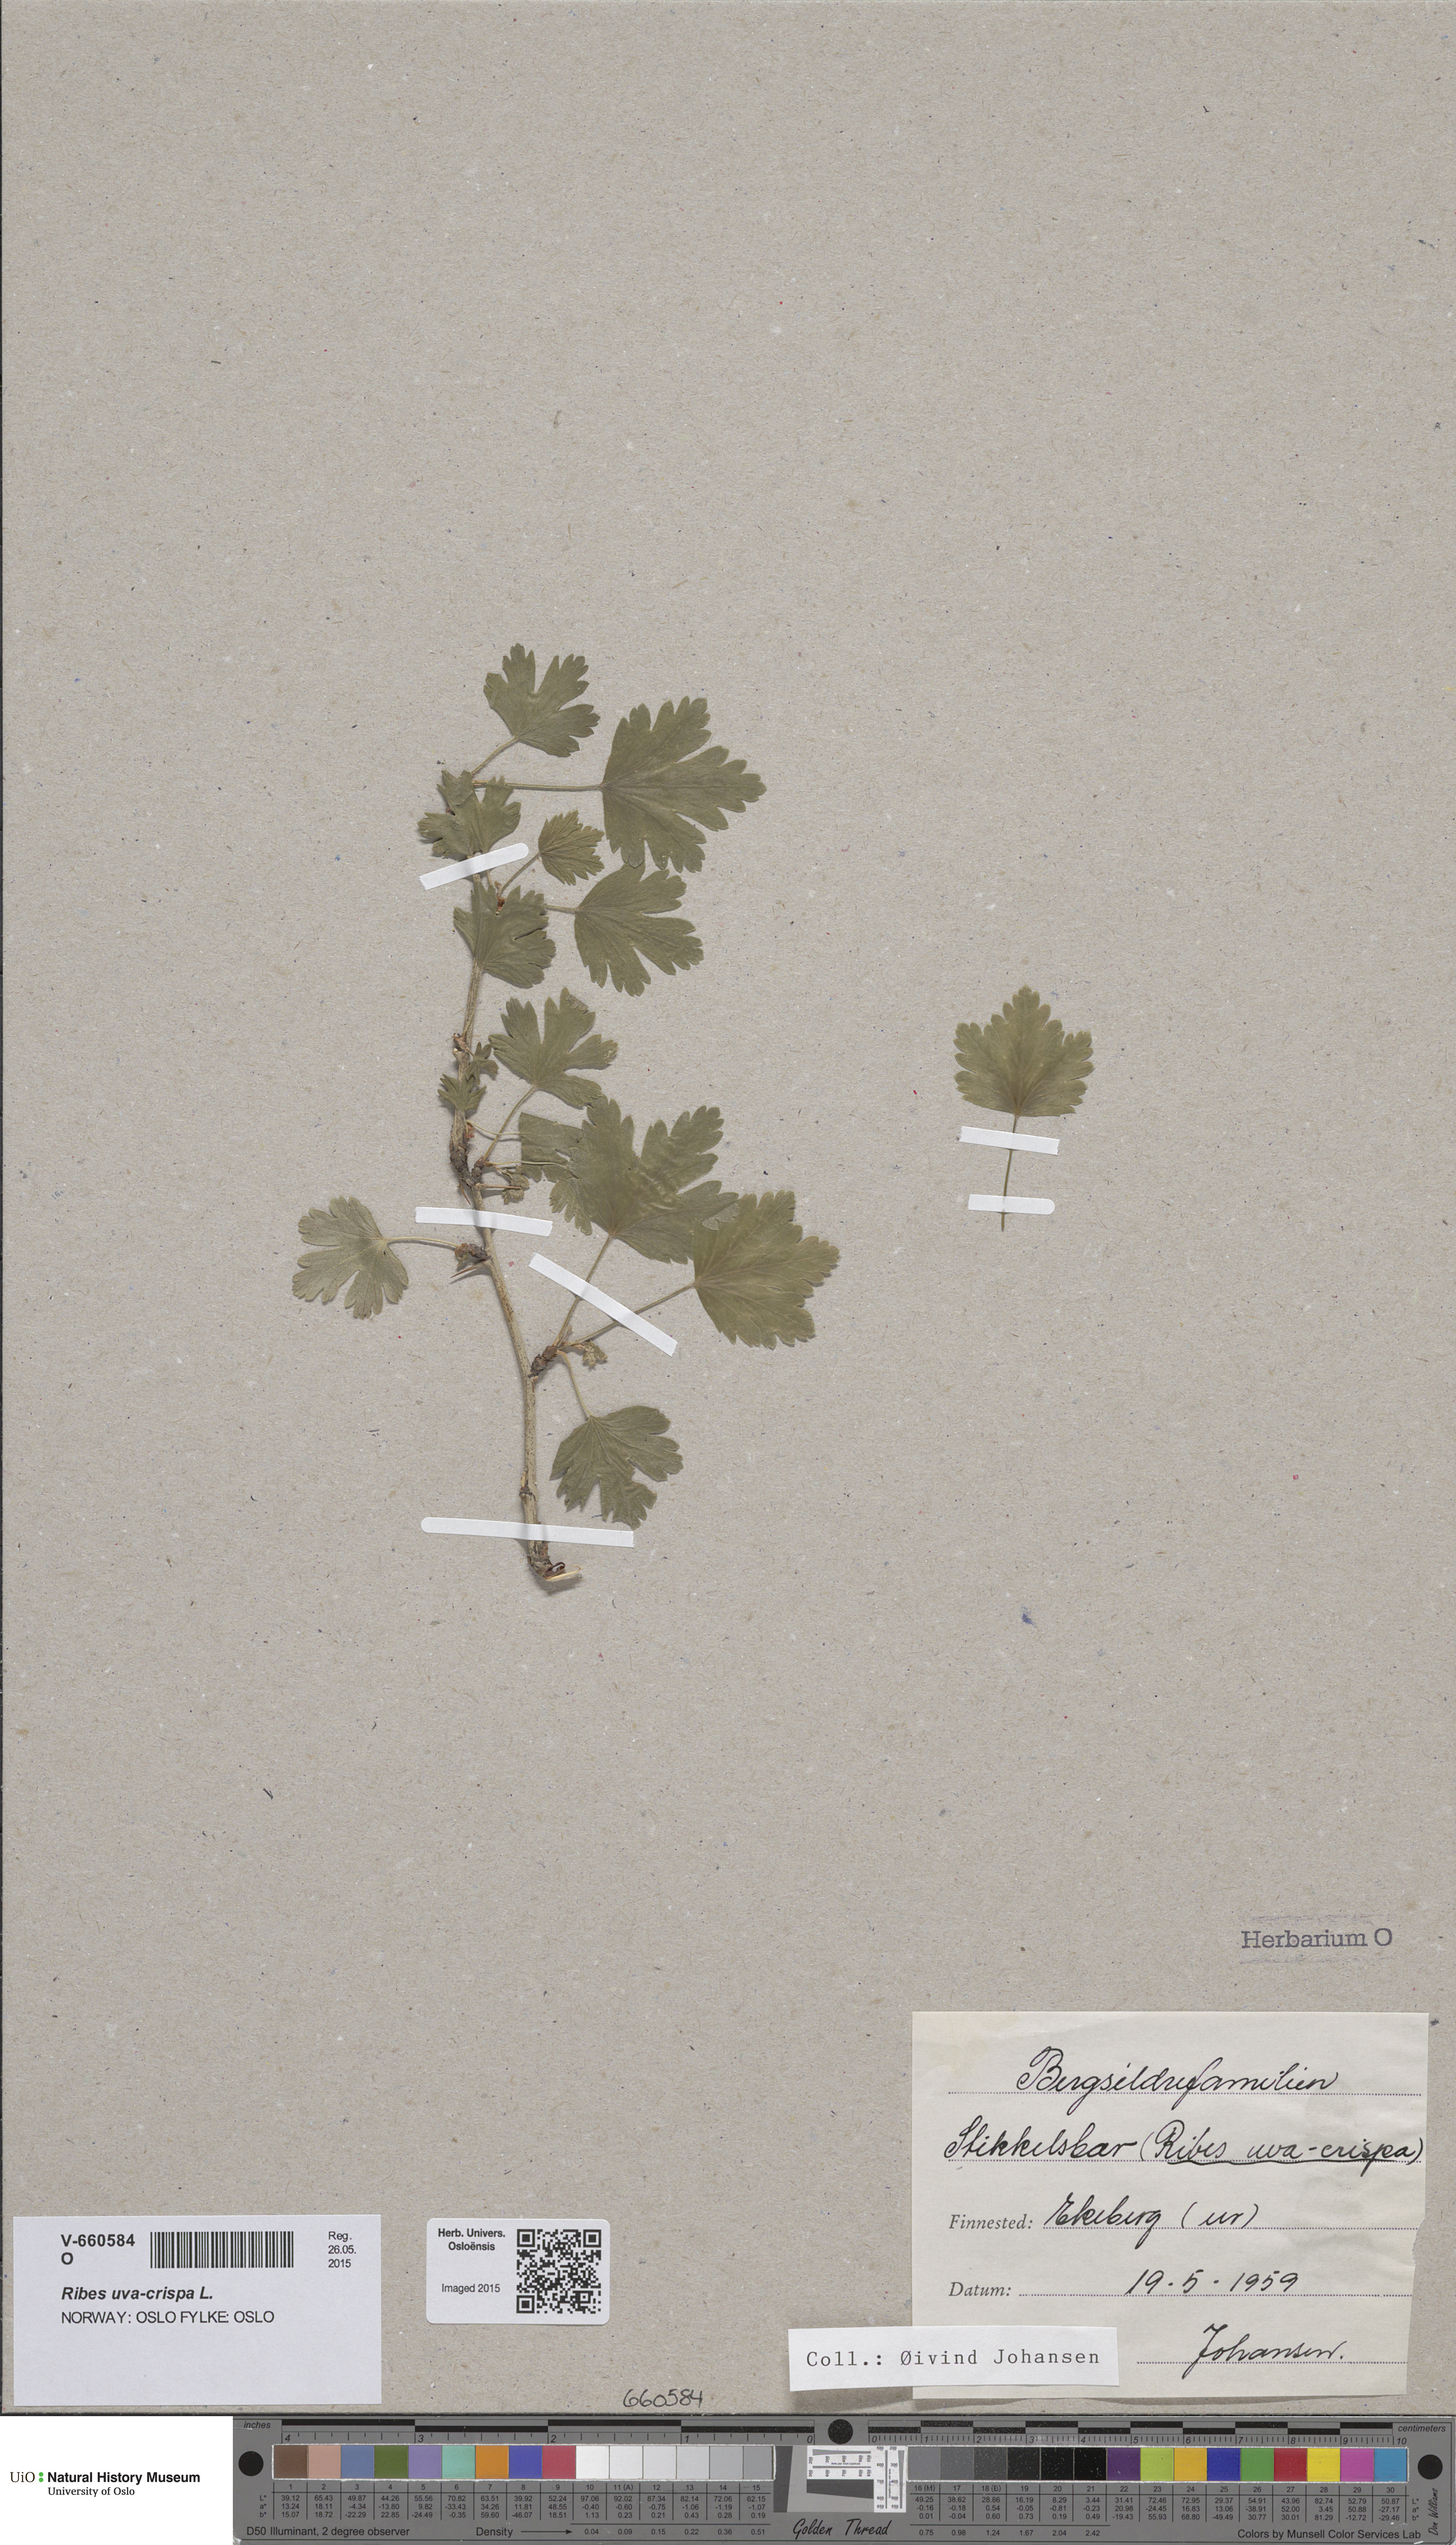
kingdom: Plantae
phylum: Tracheophyta
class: Magnoliopsida
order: Saxifragales
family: Grossulariaceae
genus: Ribes
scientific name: Ribes uva-crispa
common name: Gooseberry
